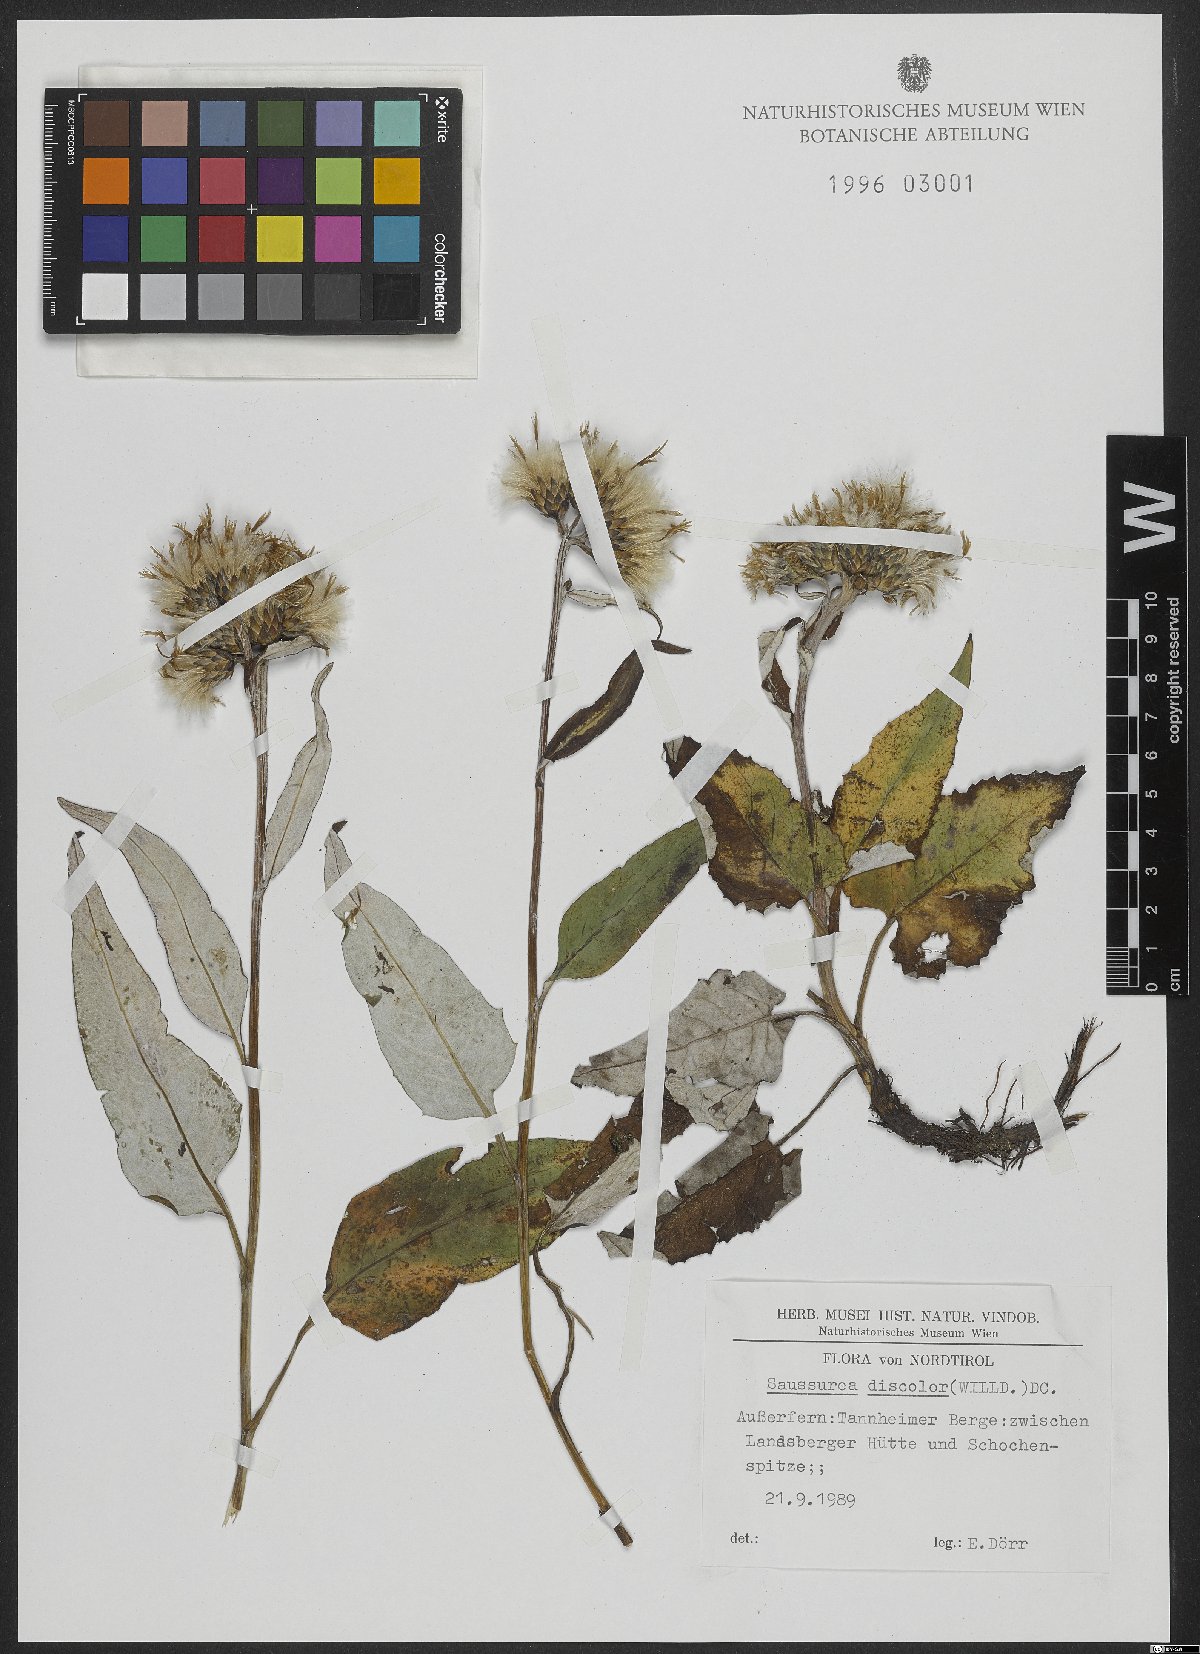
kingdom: Plantae
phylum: Tracheophyta
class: Magnoliopsida
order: Asterales
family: Asteraceae
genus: Saussurea
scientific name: Saussurea discolor
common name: Heart-leaved saussurea
